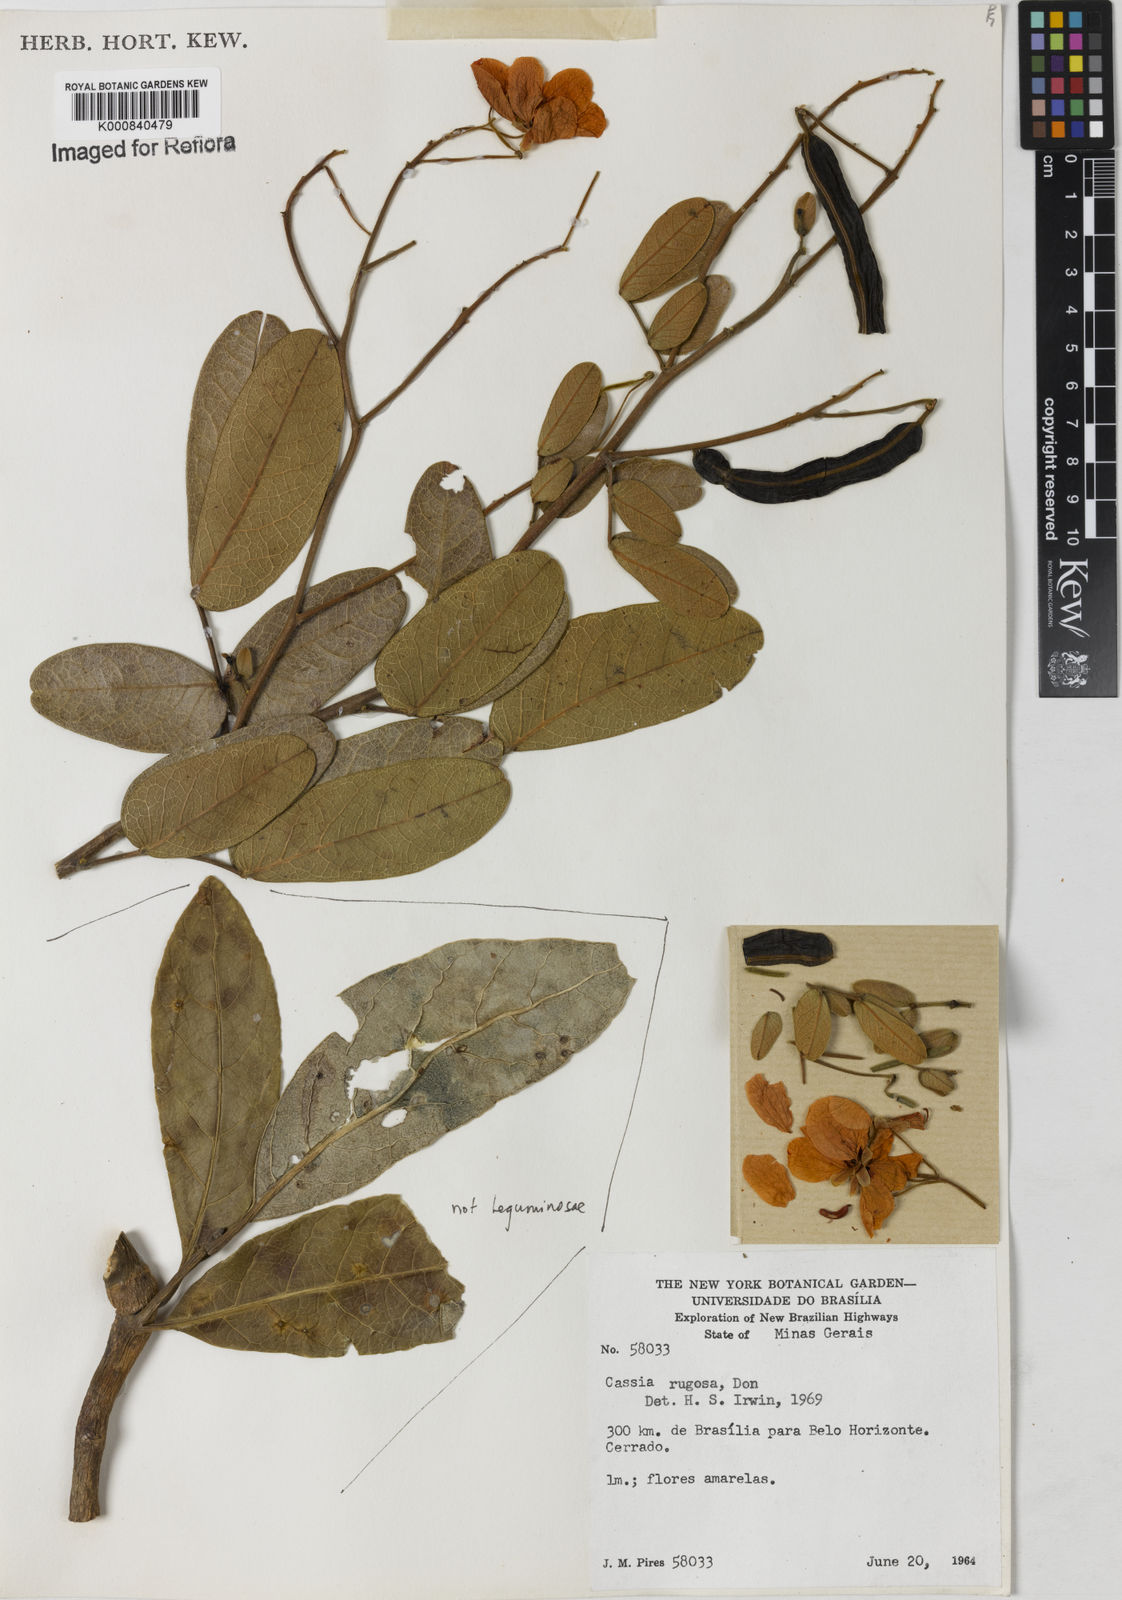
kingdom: Plantae
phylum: Tracheophyta
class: Magnoliopsida
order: Fabales
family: Fabaceae
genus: Senna
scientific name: Senna rugosa
